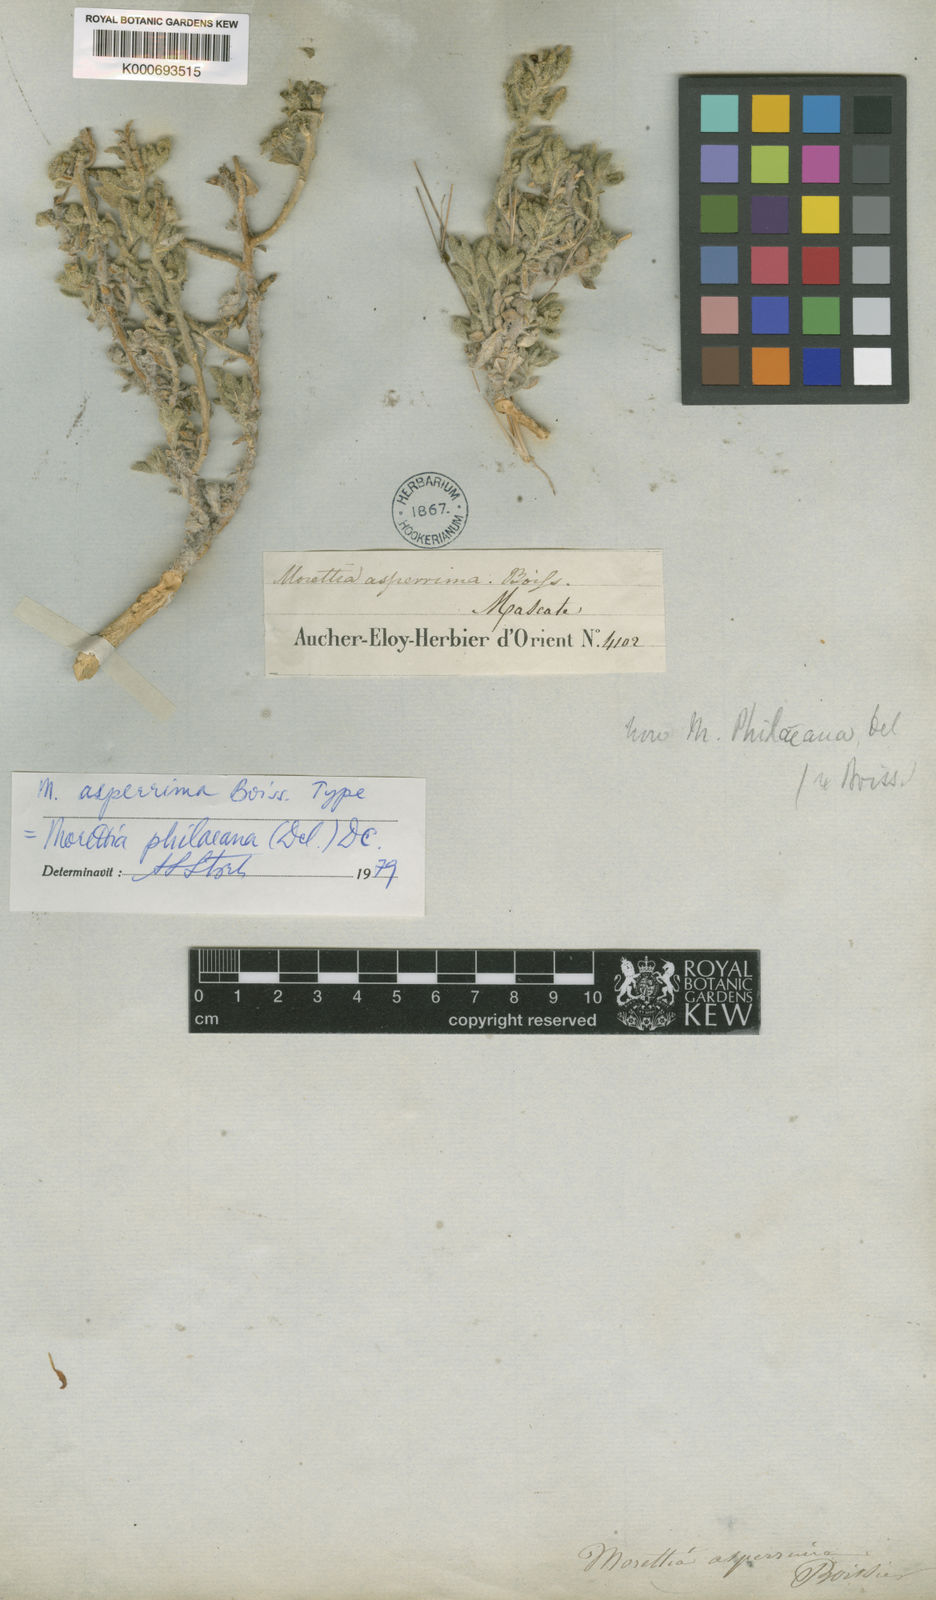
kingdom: Plantae
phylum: Tracheophyta
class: Magnoliopsida
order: Brassicales
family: Brassicaceae
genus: Morettia
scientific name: Morettia philaeana
